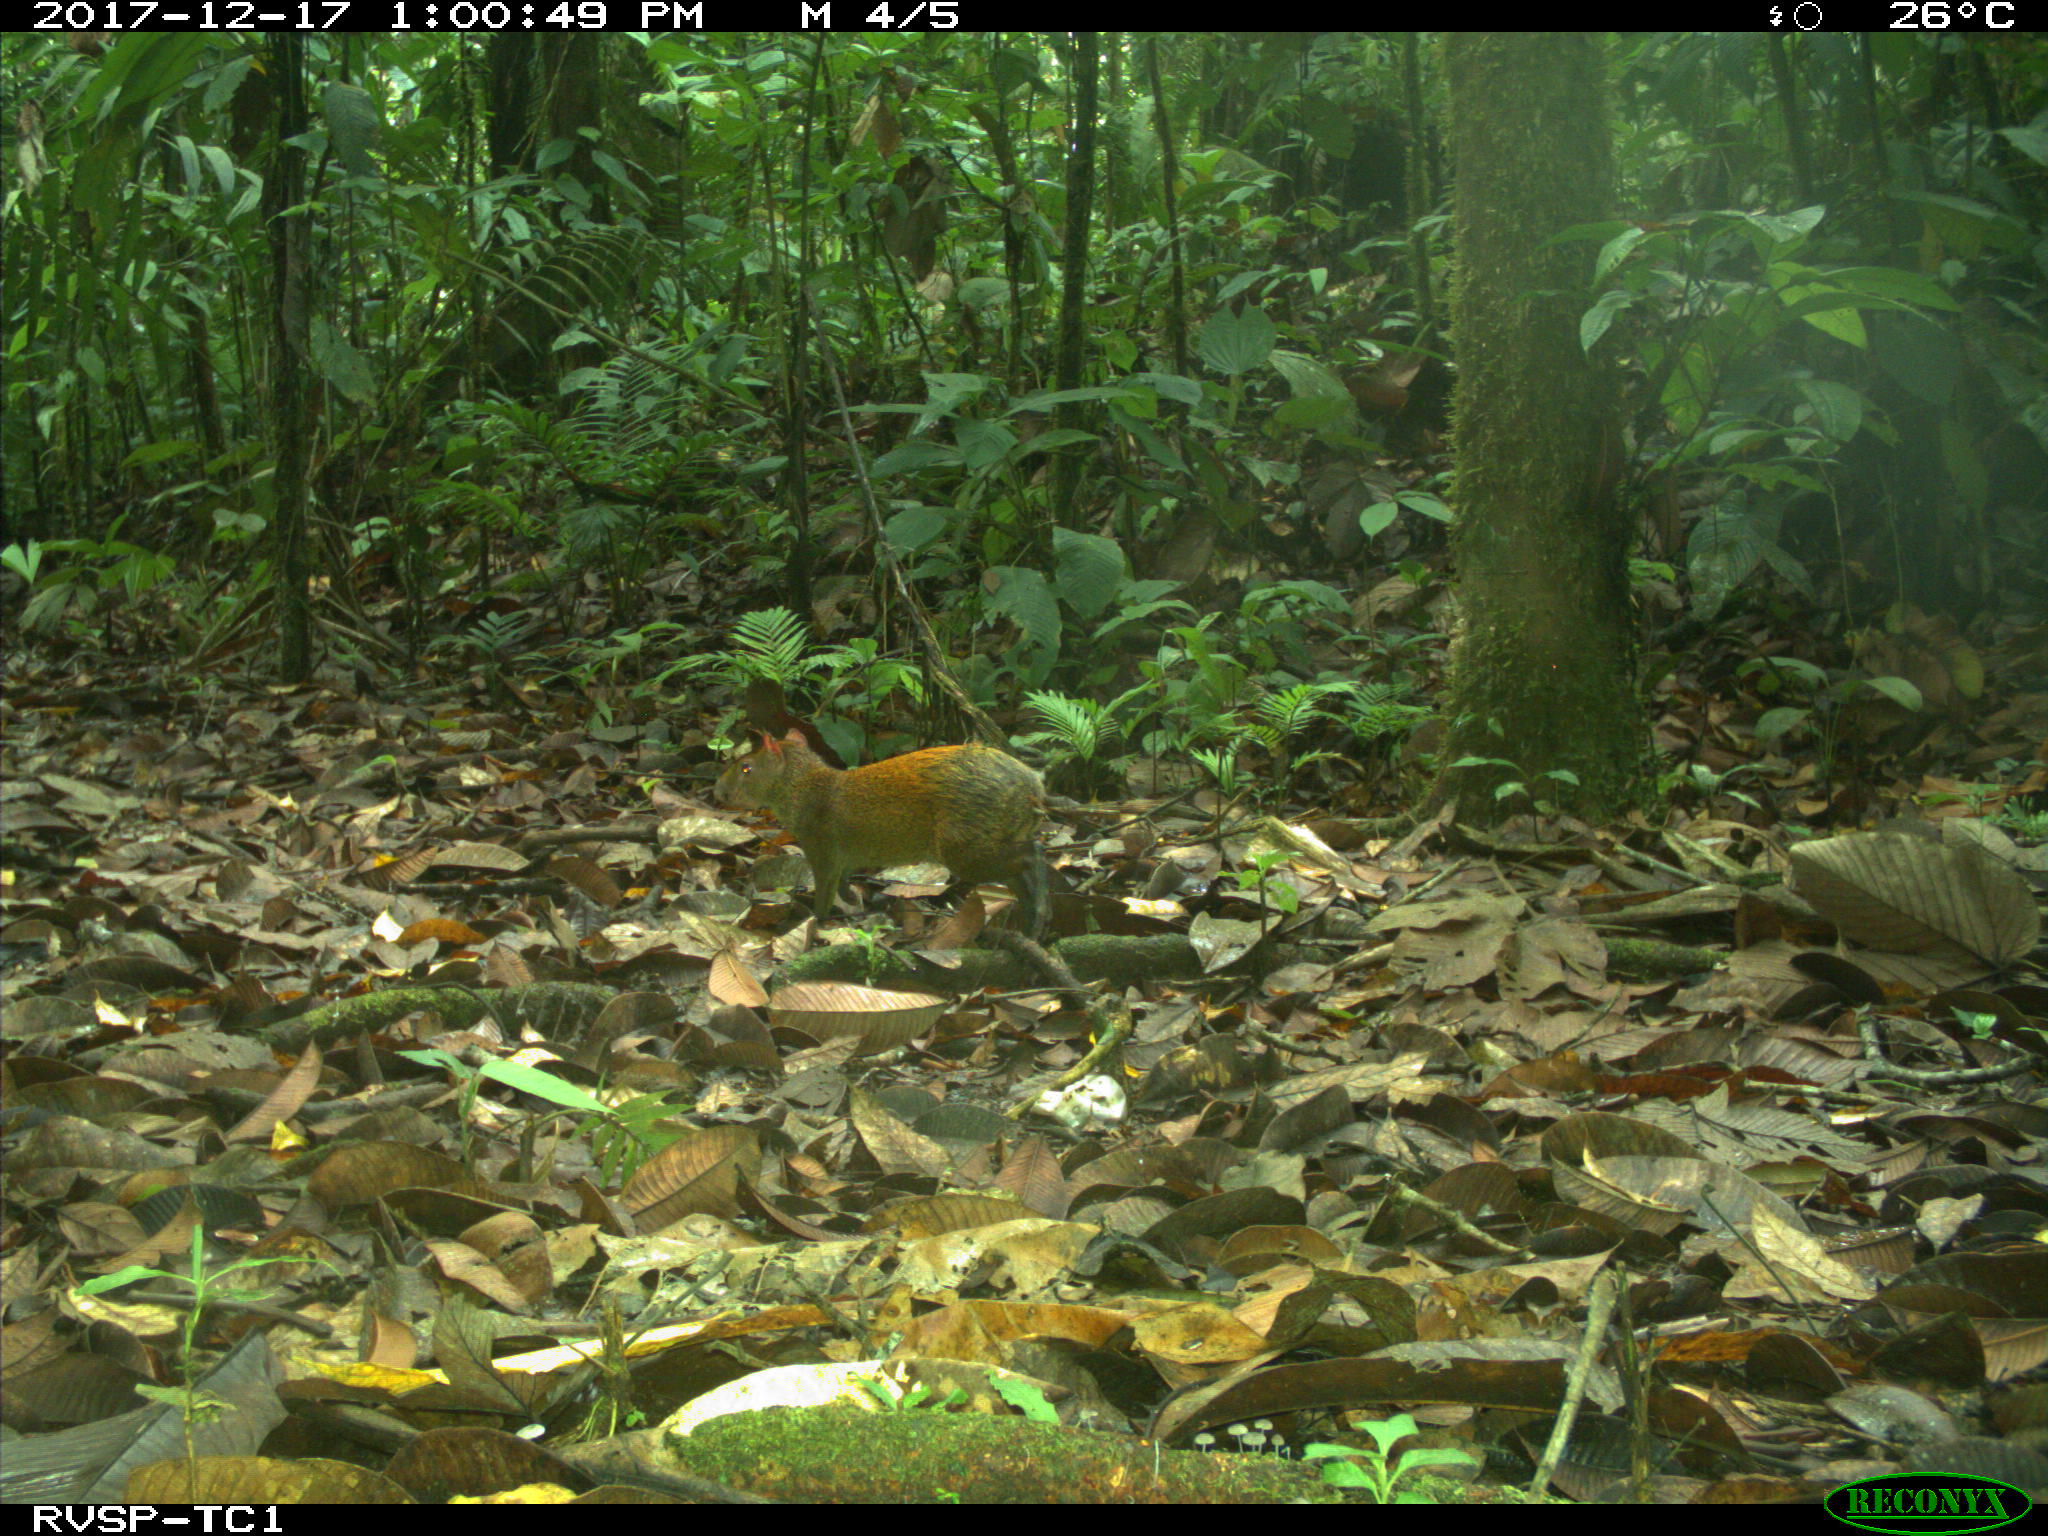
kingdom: Animalia
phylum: Chordata
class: Mammalia
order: Rodentia
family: Dasyproctidae
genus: Dasyprocta
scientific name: Dasyprocta punctata
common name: Central american agouti
